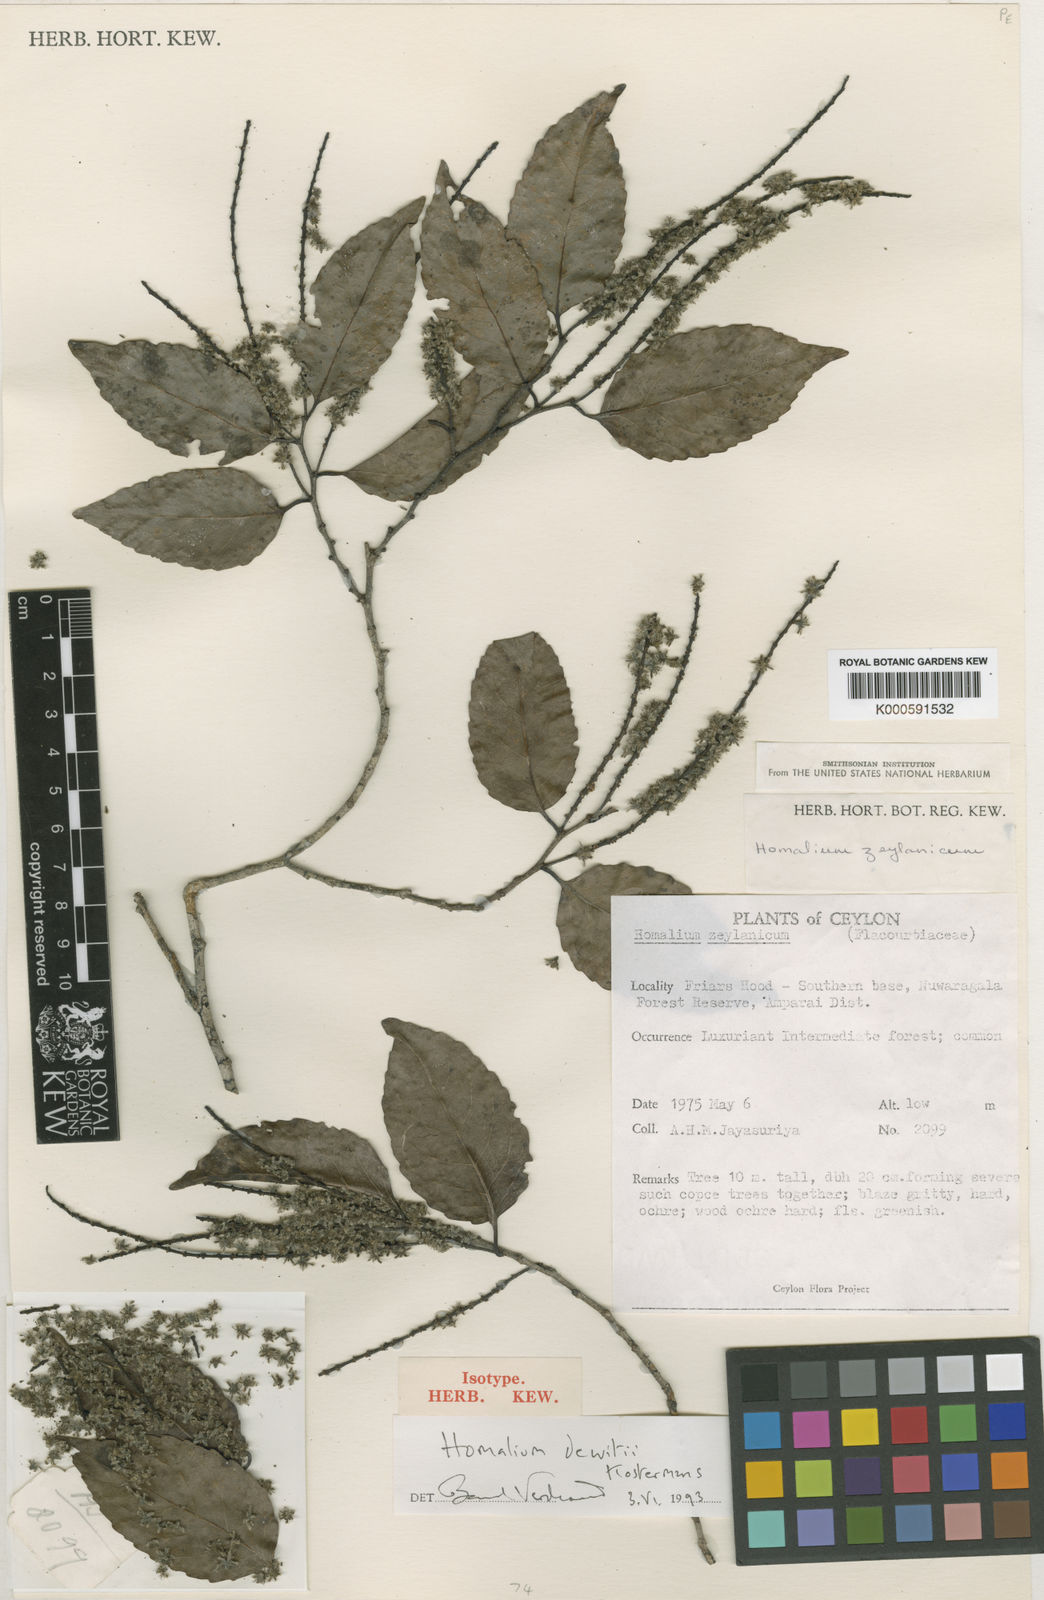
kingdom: Plantae
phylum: Tracheophyta
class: Magnoliopsida
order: Malpighiales
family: Salicaceae
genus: Homalium
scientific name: Homalium dewitii
